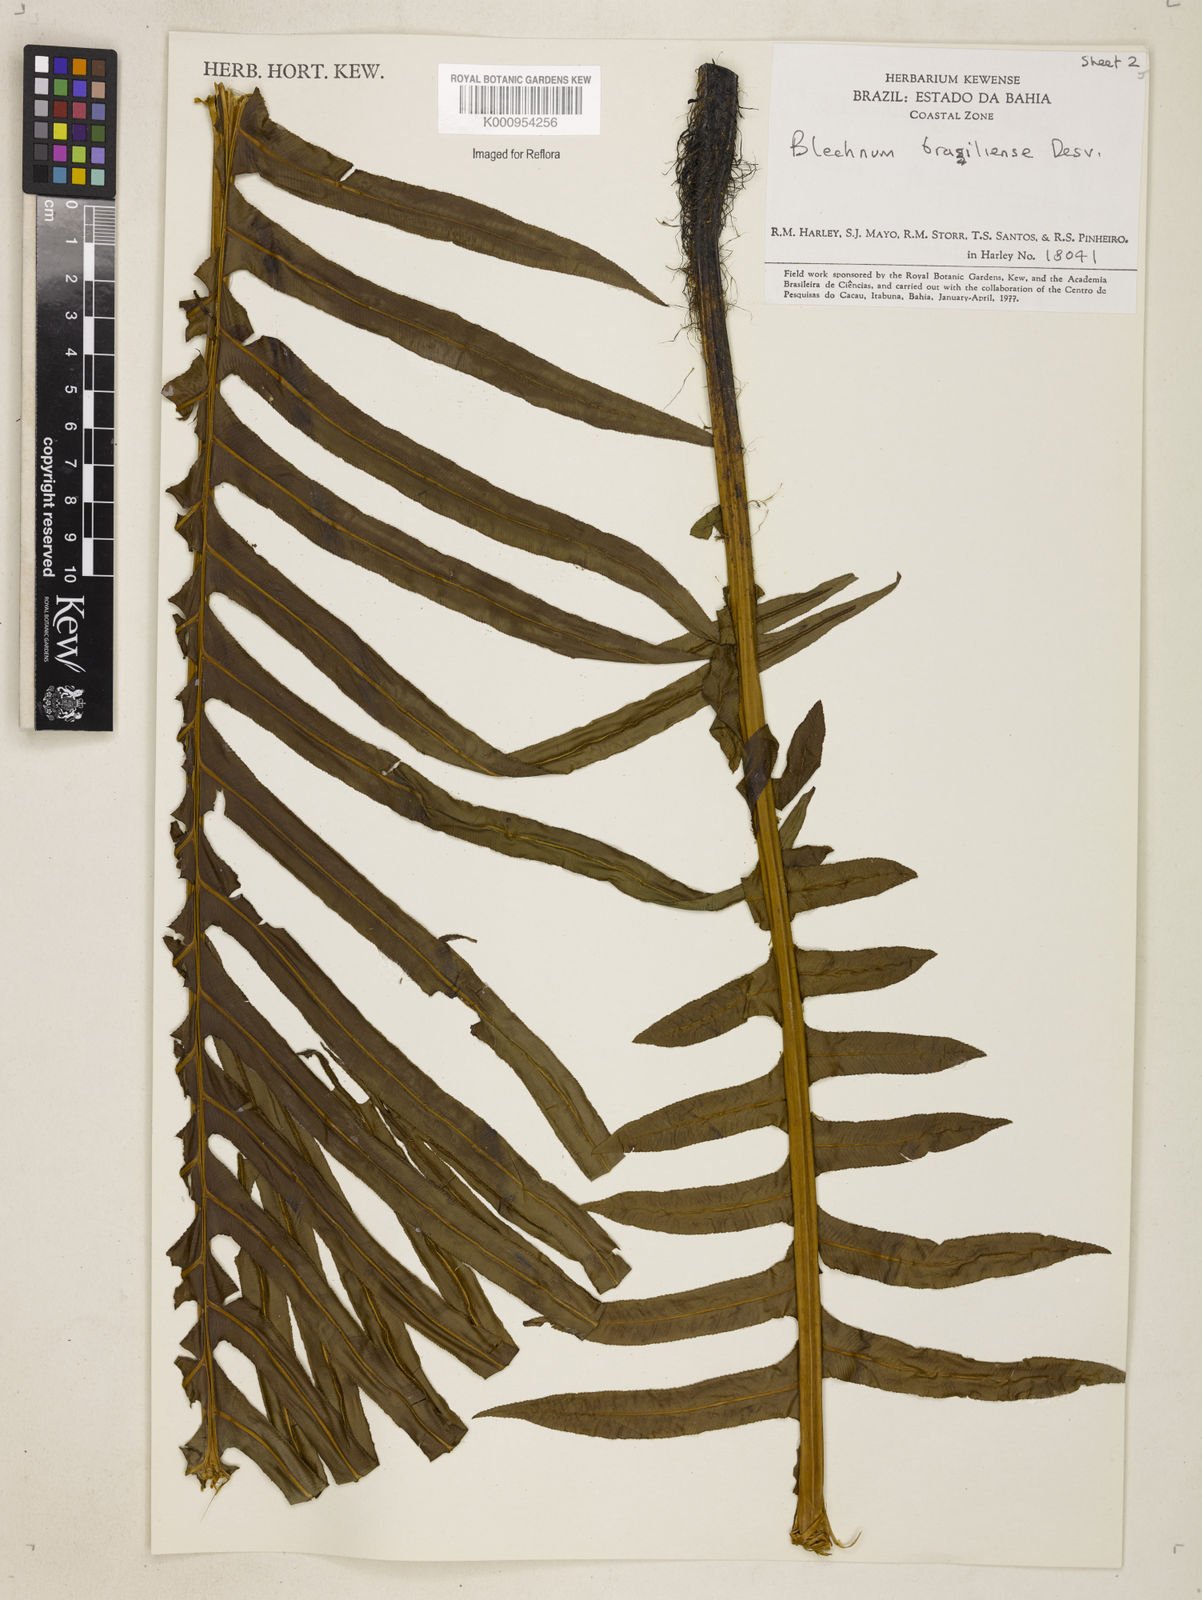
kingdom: Plantae
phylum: Tracheophyta
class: Polypodiopsida
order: Polypodiales
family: Blechnaceae
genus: Neoblechnum
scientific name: Neoblechnum brasiliense
